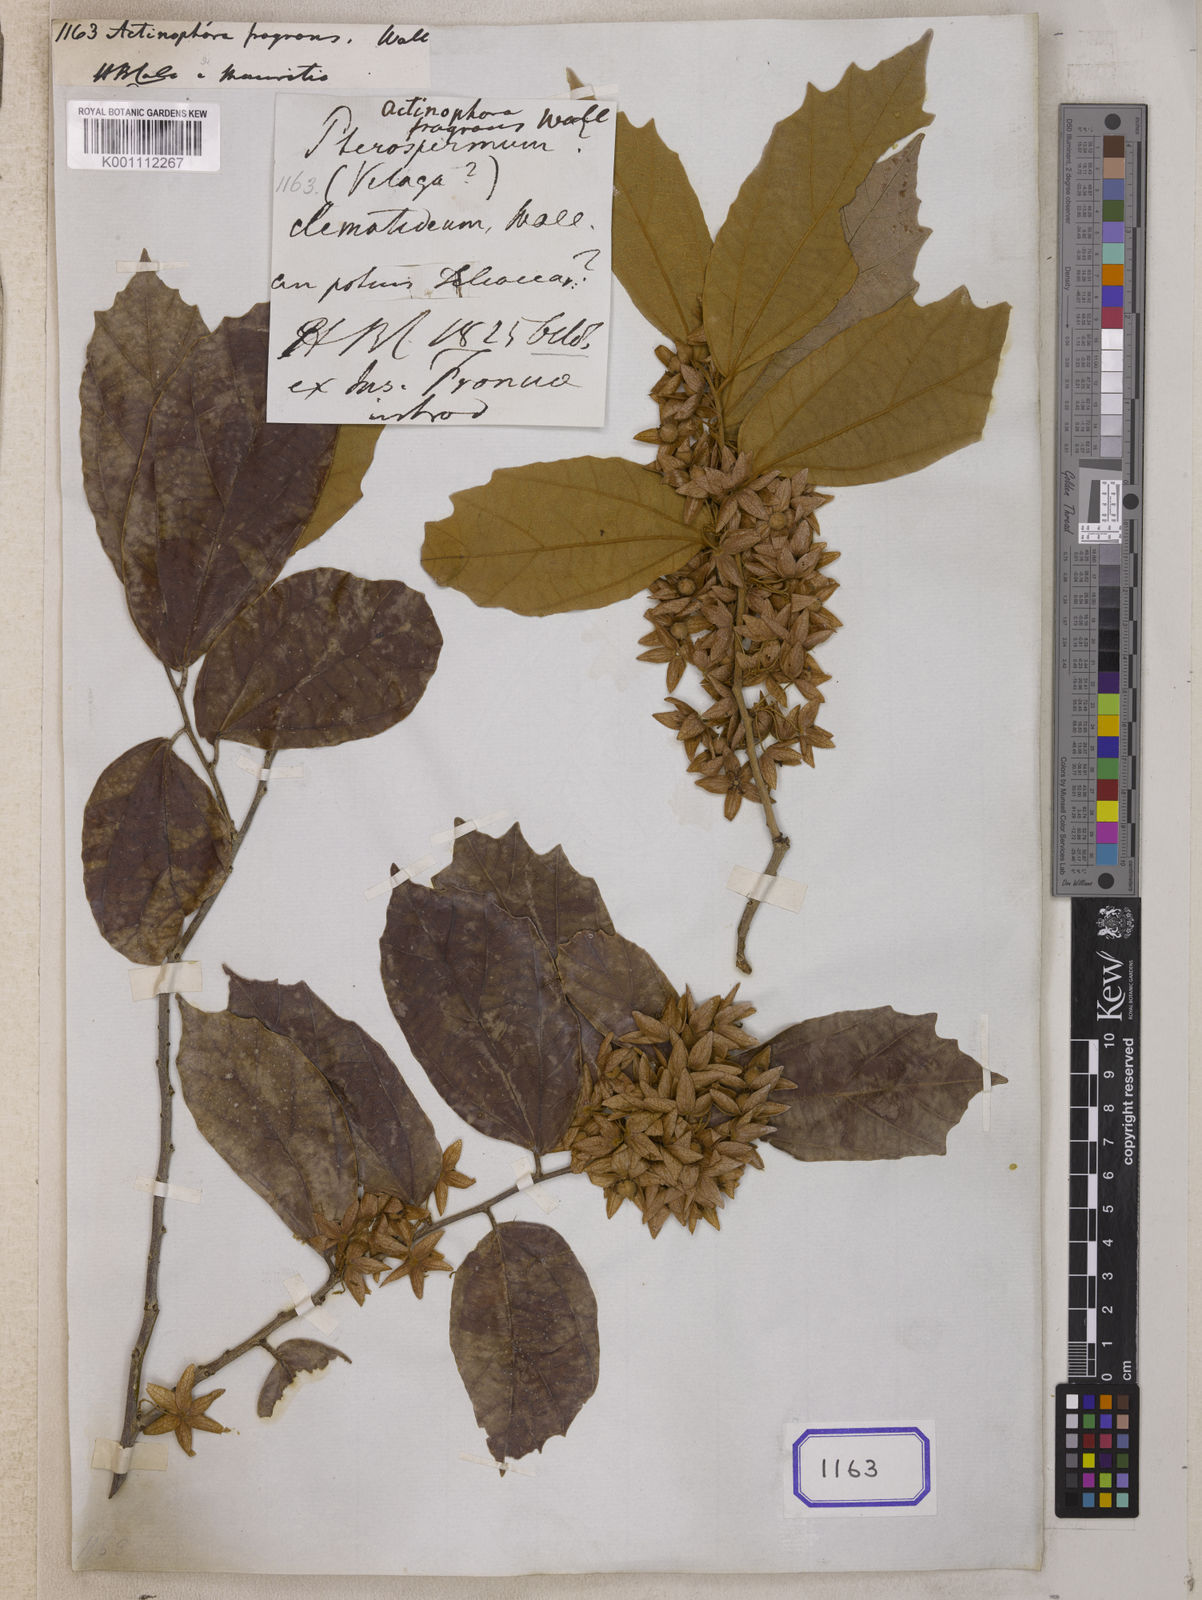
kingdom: Plantae
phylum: Tracheophyta
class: Magnoliopsida
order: Malvales
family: Tiliaceae
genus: Actinophora
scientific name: Actinophora
